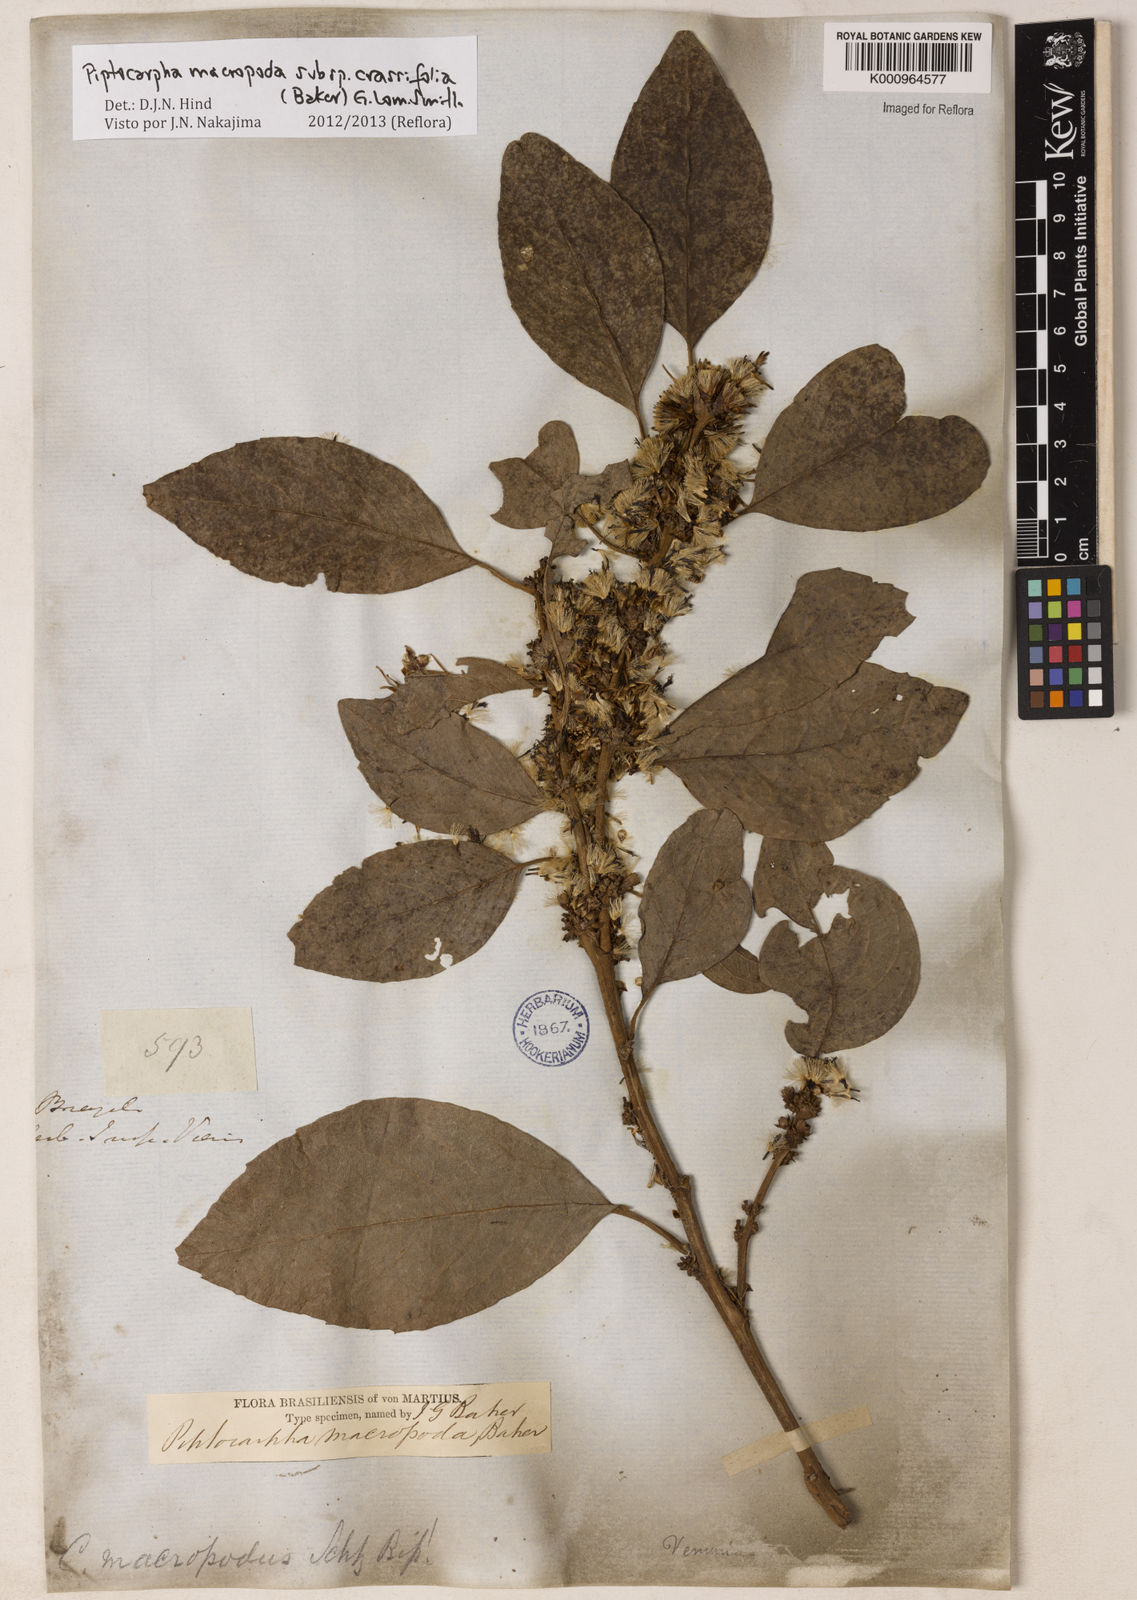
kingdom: Plantae
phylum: Tracheophyta
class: Magnoliopsida
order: Asterales
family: Asteraceae
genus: Piptocarpha
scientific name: Piptocarpha macropoda
